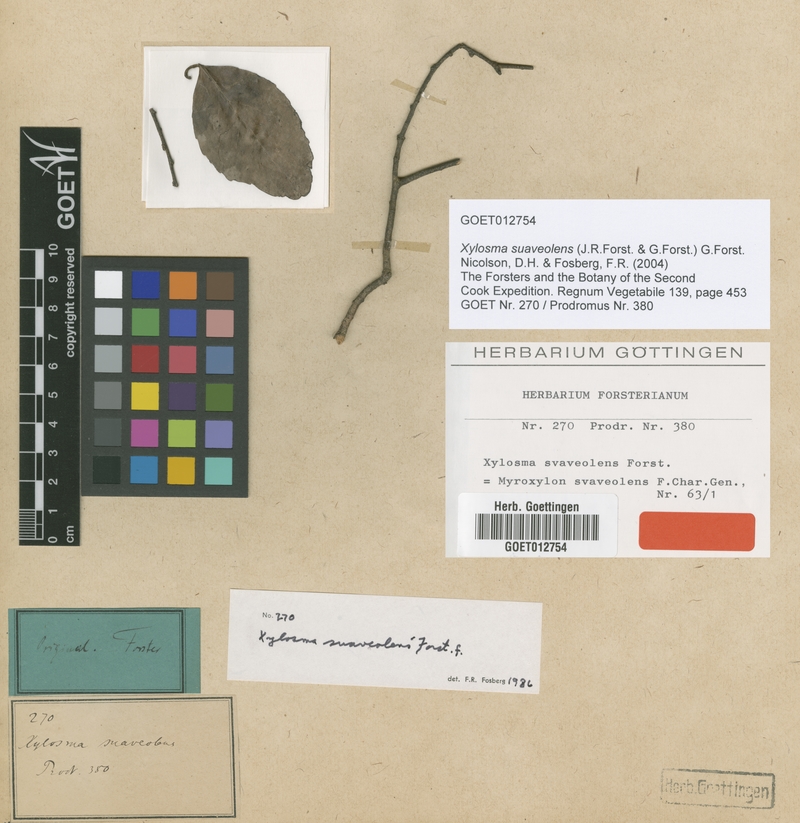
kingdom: Plantae
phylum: Tracheophyta
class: Magnoliopsida
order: Malpighiales
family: Salicaceae
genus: Xylosma
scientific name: Xylosma suaveolens
